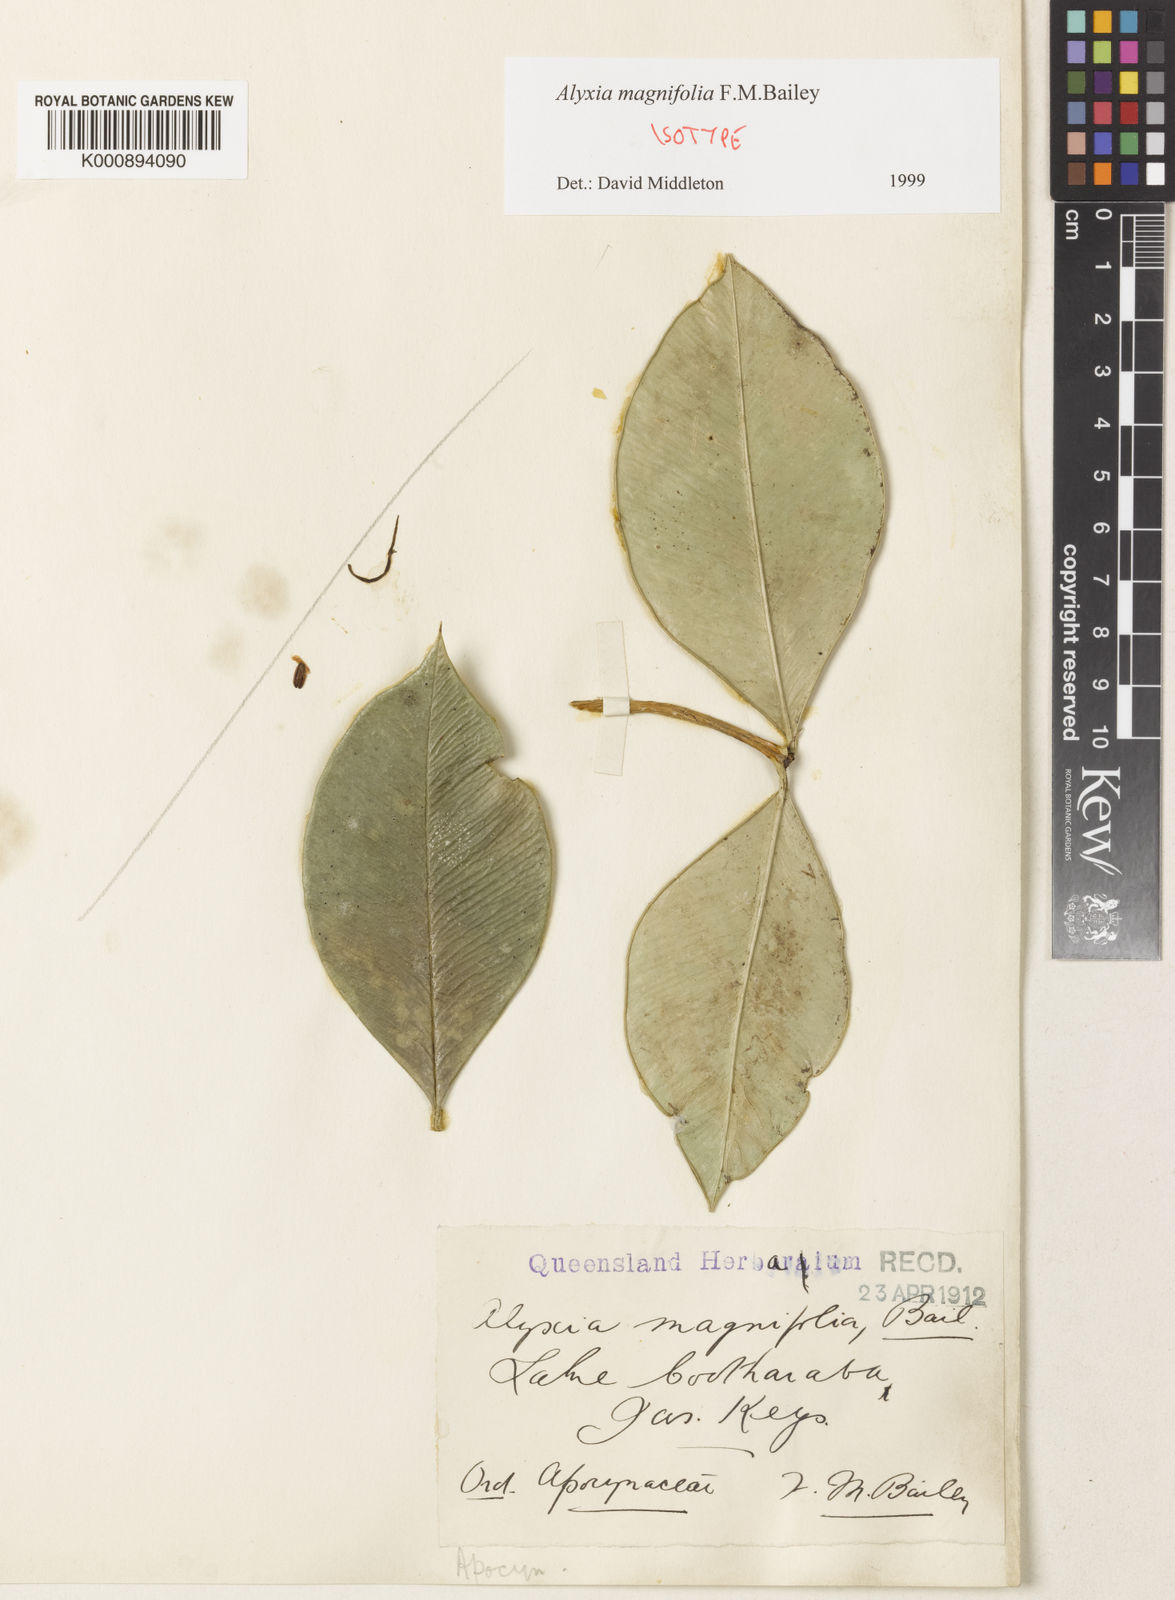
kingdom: Plantae
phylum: Tracheophyta
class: Magnoliopsida
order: Gentianales
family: Apocynaceae
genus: Alyxia
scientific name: Alyxia ilicifolia
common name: Chainfruit
